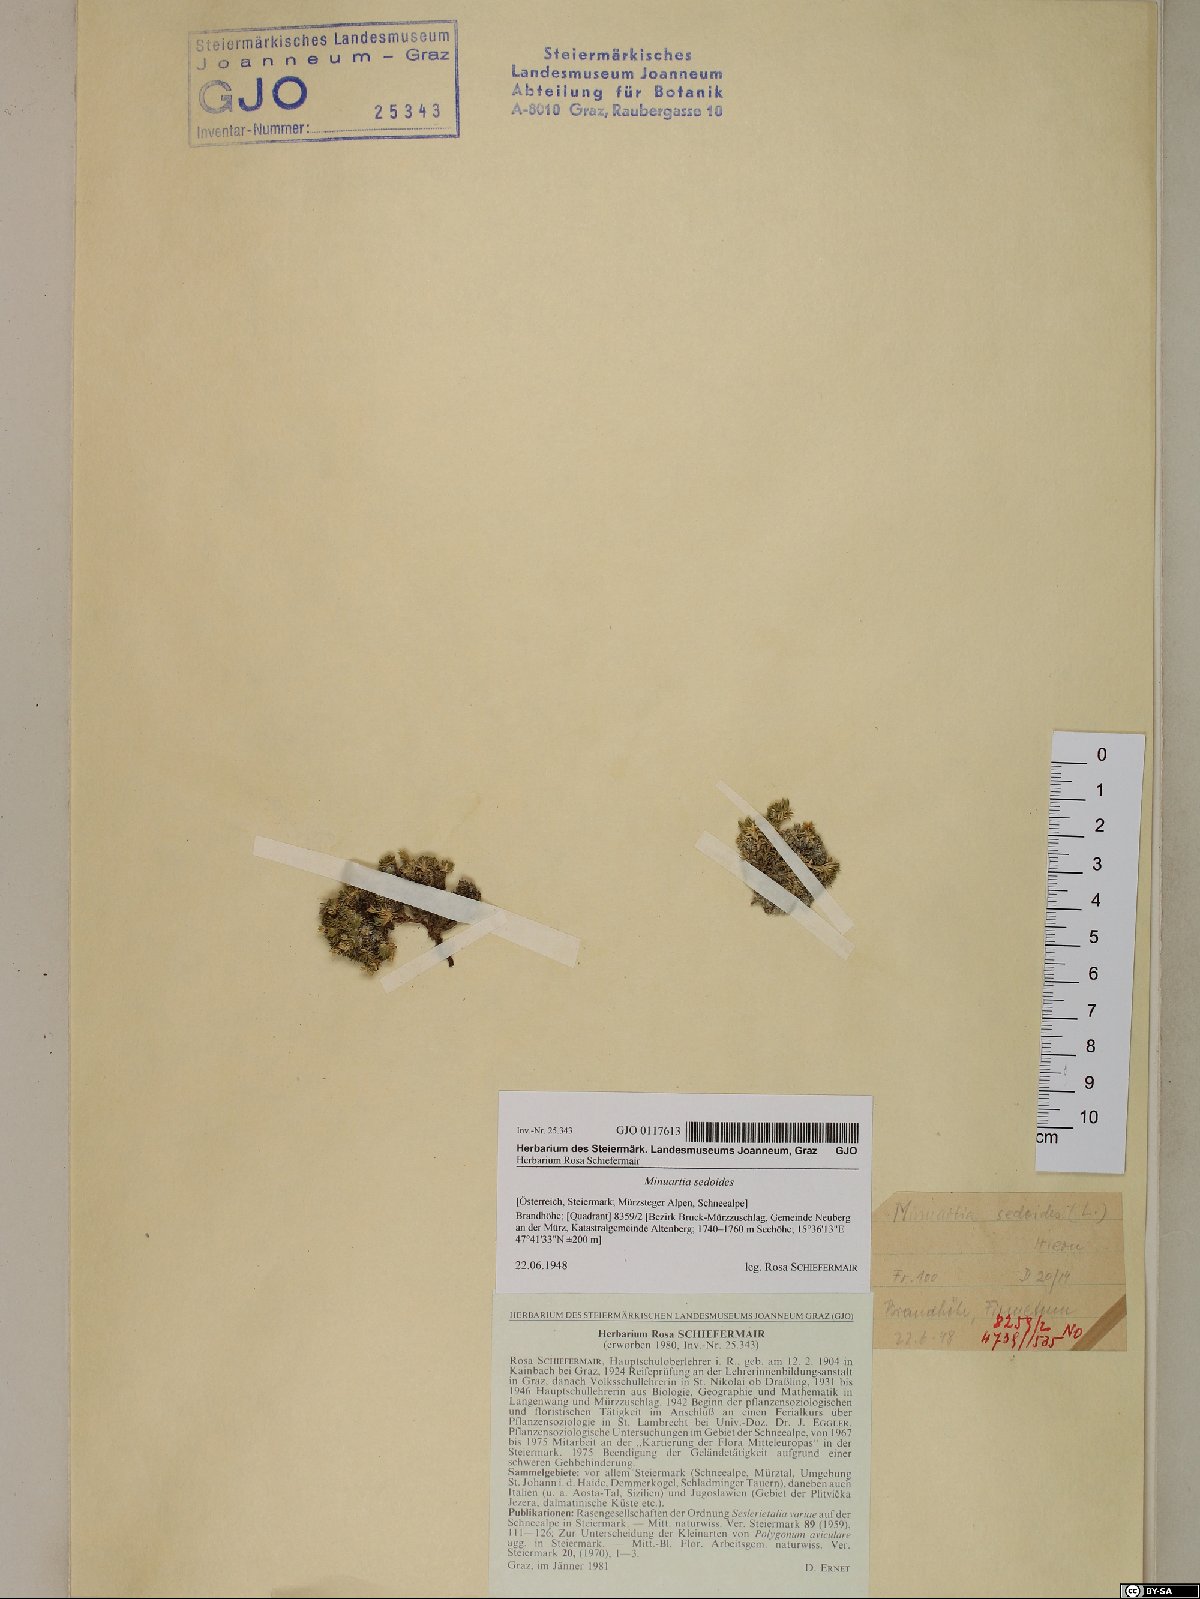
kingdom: Plantae
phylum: Tracheophyta
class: Magnoliopsida
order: Caryophyllales
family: Caryophyllaceae
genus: Cherleria
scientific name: Cherleria sedoides
